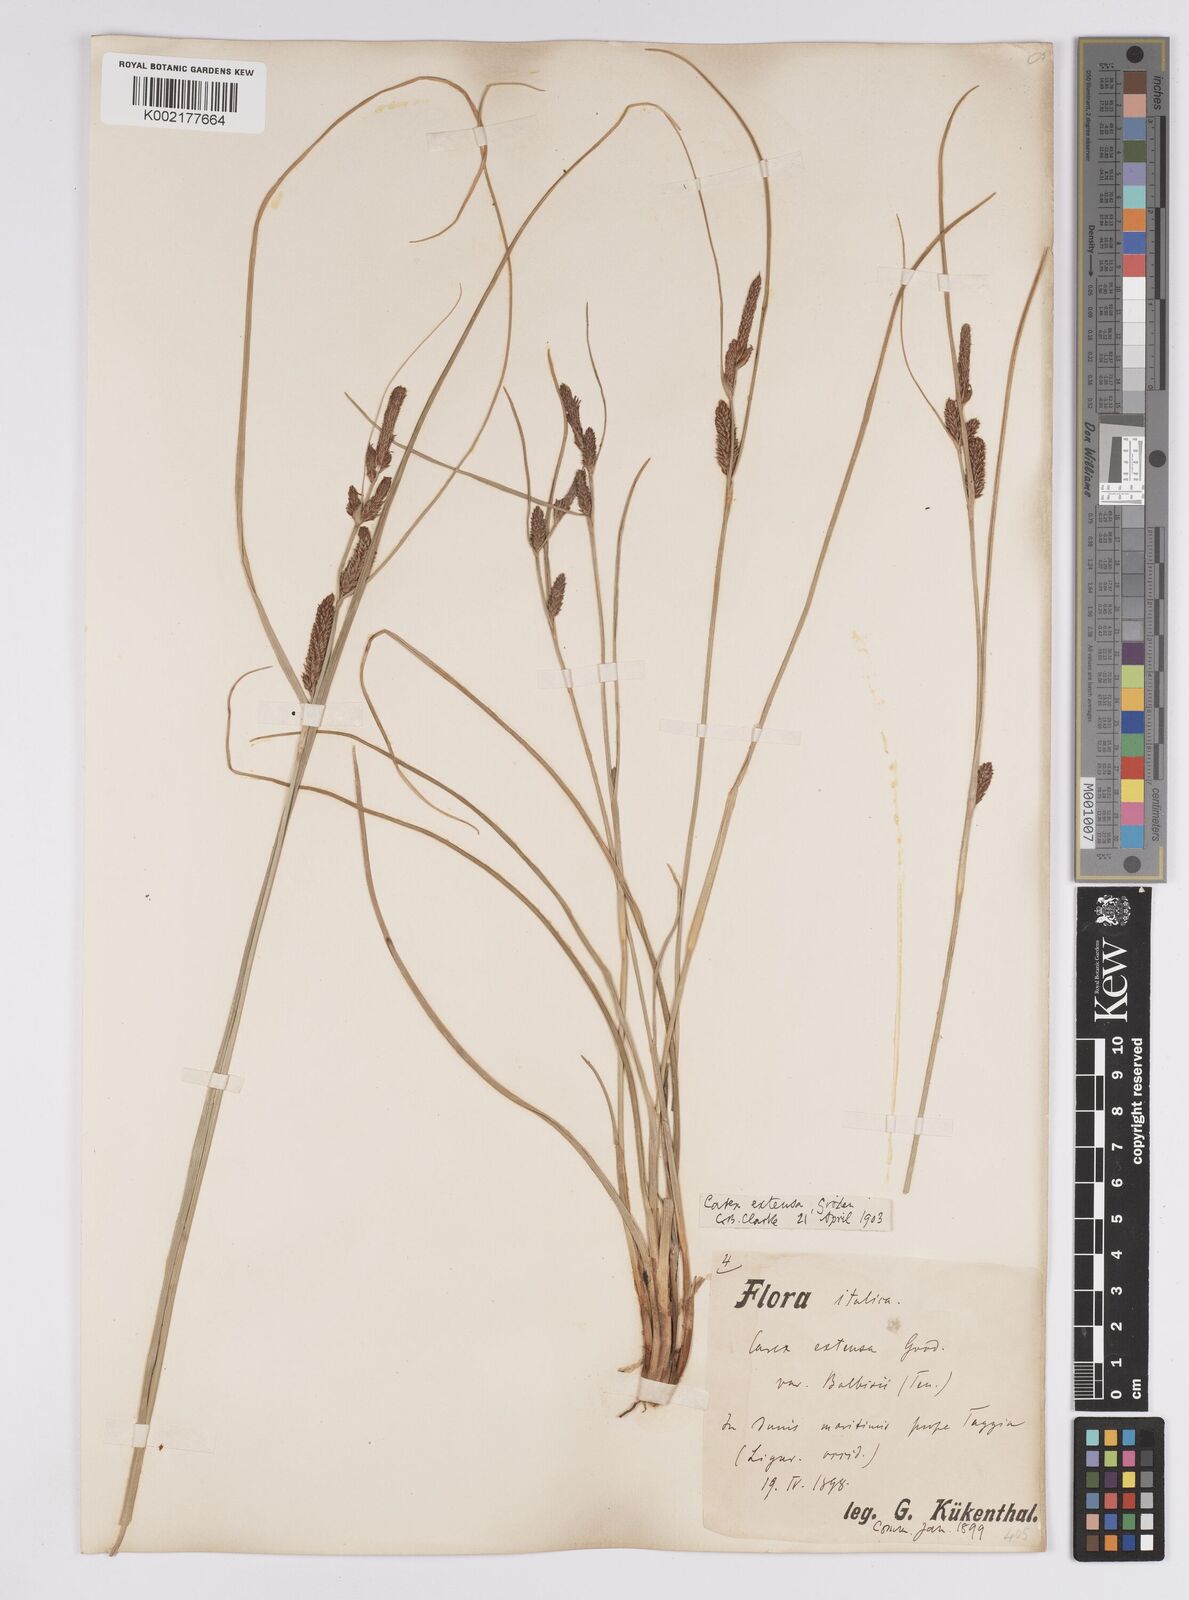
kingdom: Plantae
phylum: Tracheophyta
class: Liliopsida
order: Poales
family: Cyperaceae
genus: Carex
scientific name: Carex extensa
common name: Long-bracted sedge
